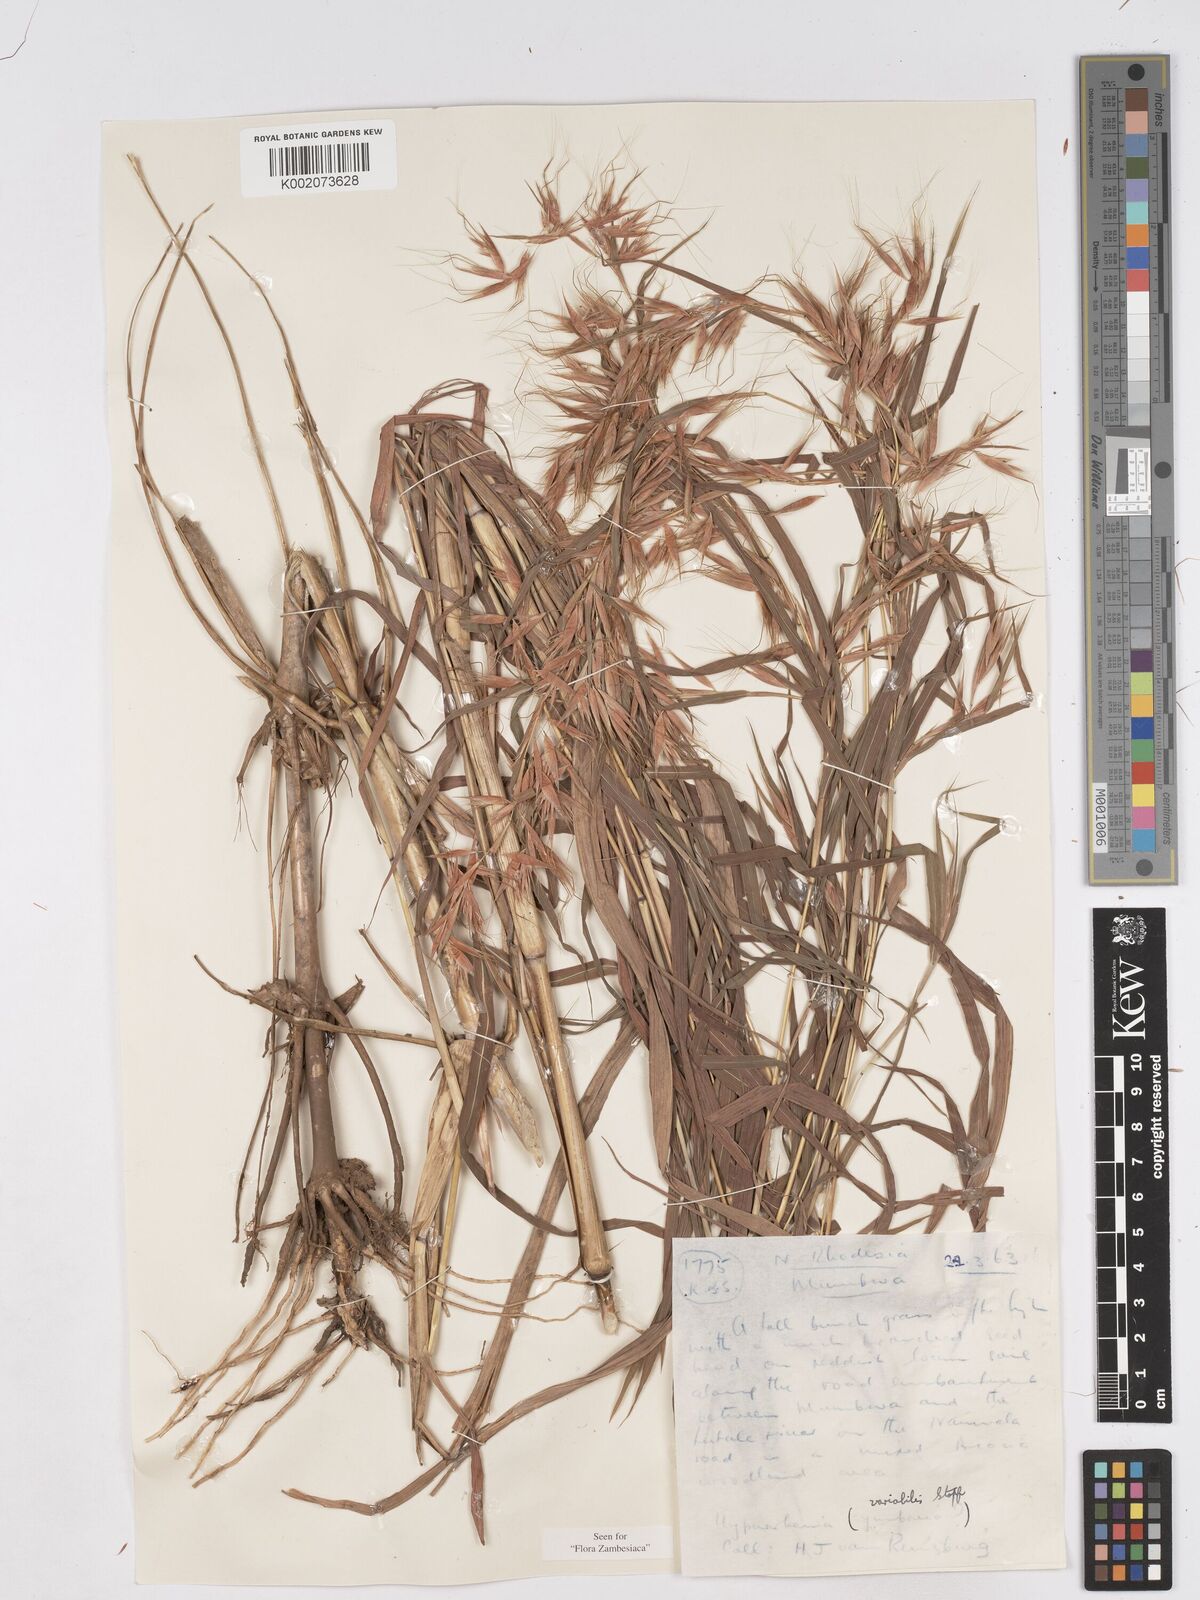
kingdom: Plantae
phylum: Tracheophyta
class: Liliopsida
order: Poales
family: Poaceae
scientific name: Poaceae
